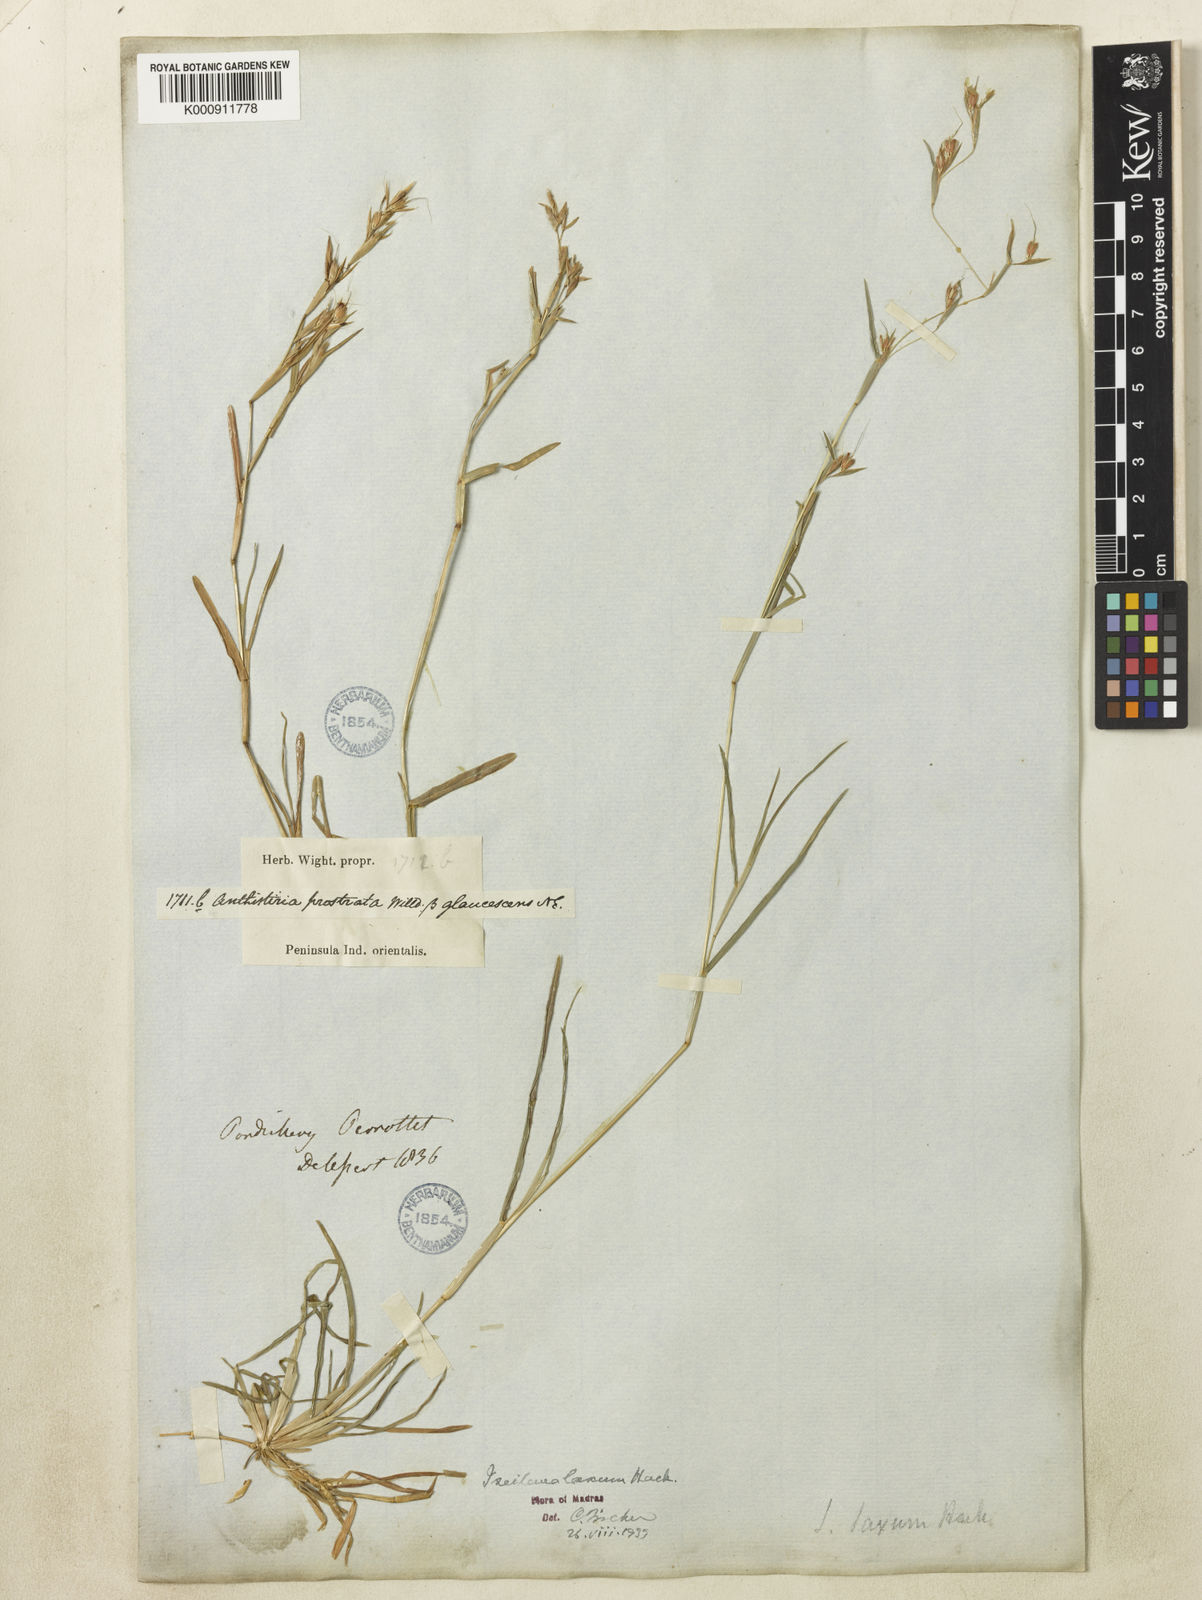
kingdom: Plantae
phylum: Tracheophyta
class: Liliopsida
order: Poales
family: Poaceae
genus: Iseilema
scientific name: Iseilema prostratum
